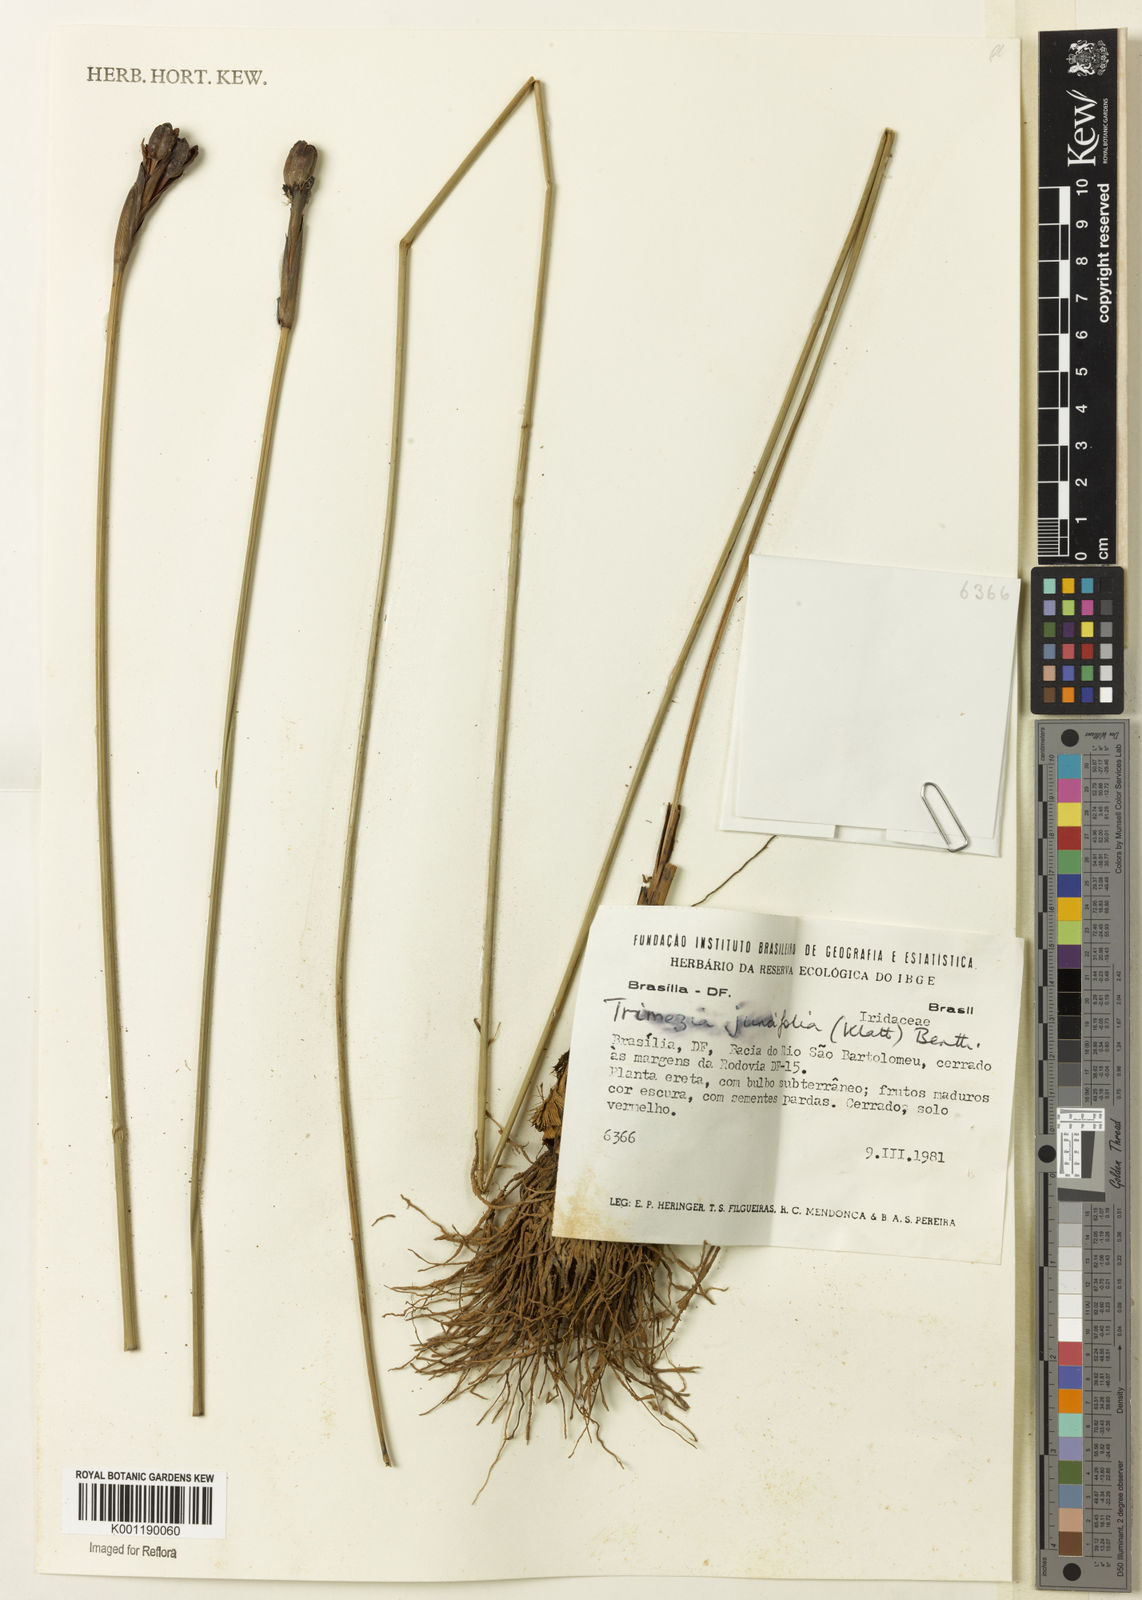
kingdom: Plantae
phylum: Tracheophyta
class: Liliopsida
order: Asparagales
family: Iridaceae
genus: Trimezia
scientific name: Trimezia juncifolia
